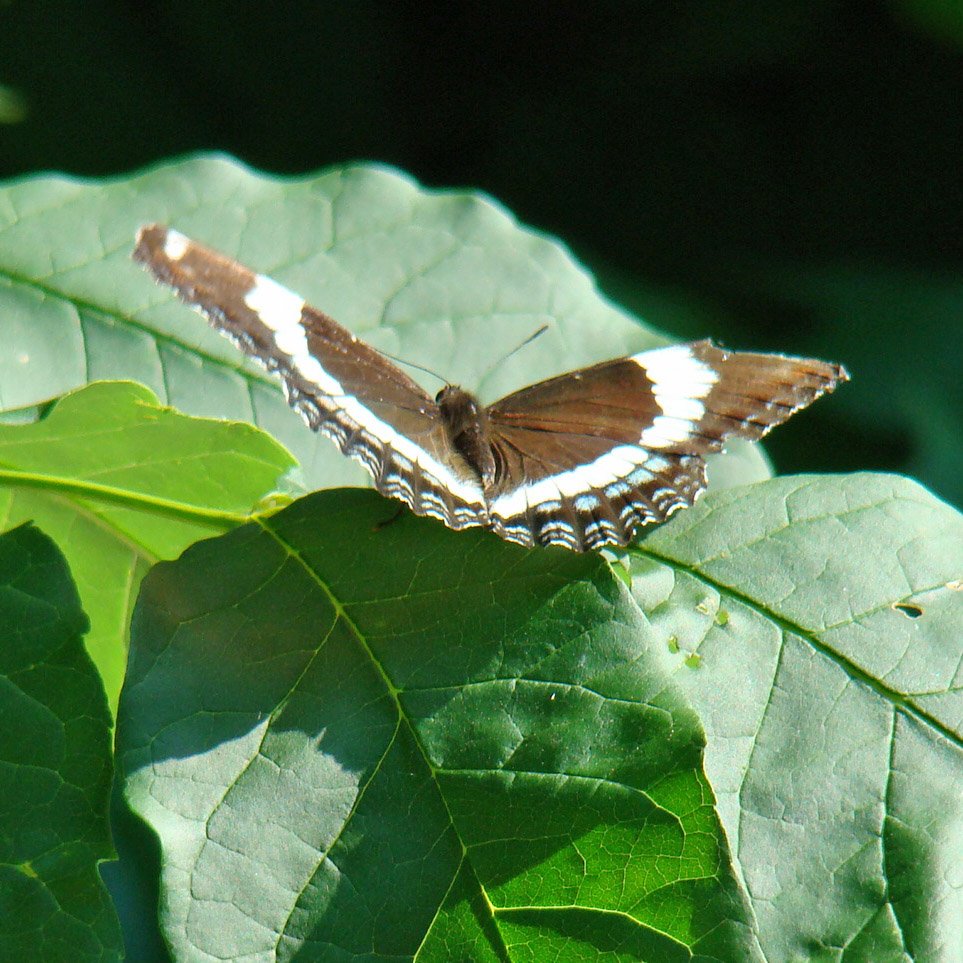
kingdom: Animalia
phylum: Arthropoda
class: Insecta
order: Lepidoptera
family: Nymphalidae
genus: Limenitis
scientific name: Limenitis arthemis
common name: Red-spotted Admiral
